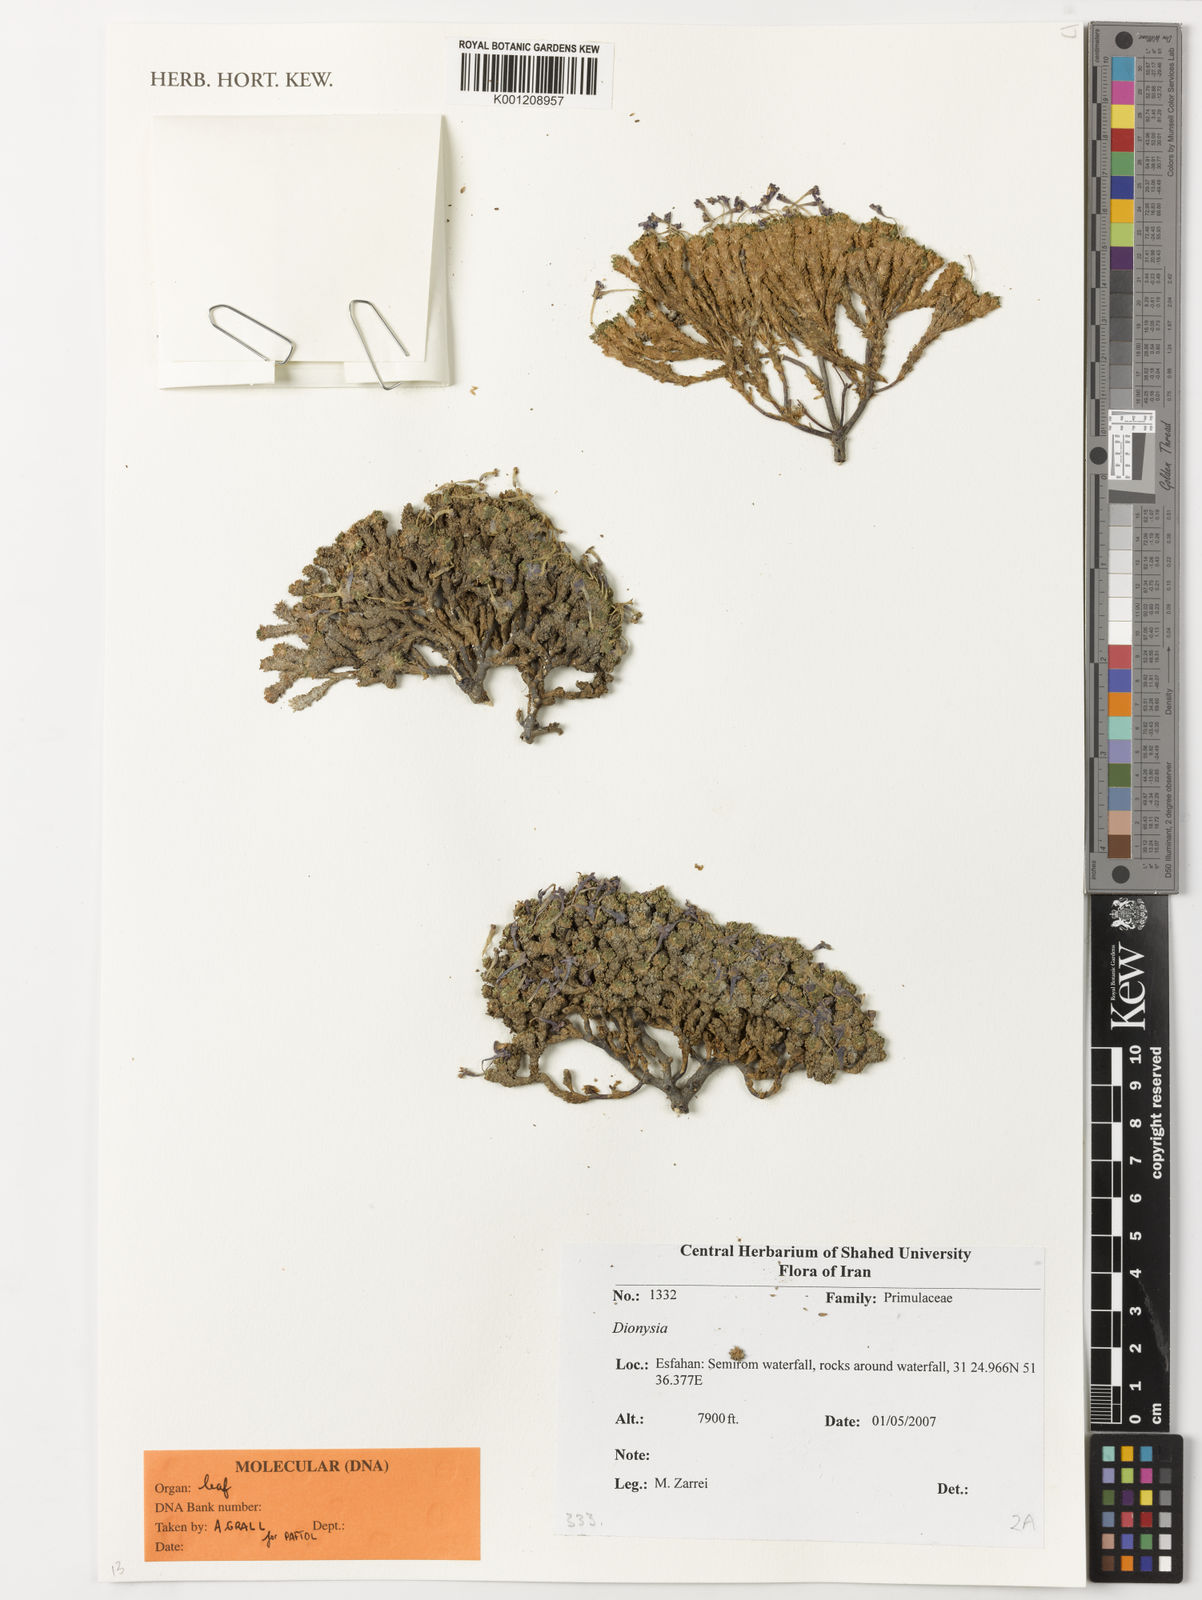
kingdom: Plantae
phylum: Tracheophyta
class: Magnoliopsida
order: Ericales
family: Primulaceae
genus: Dionysia
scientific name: Dionysia
